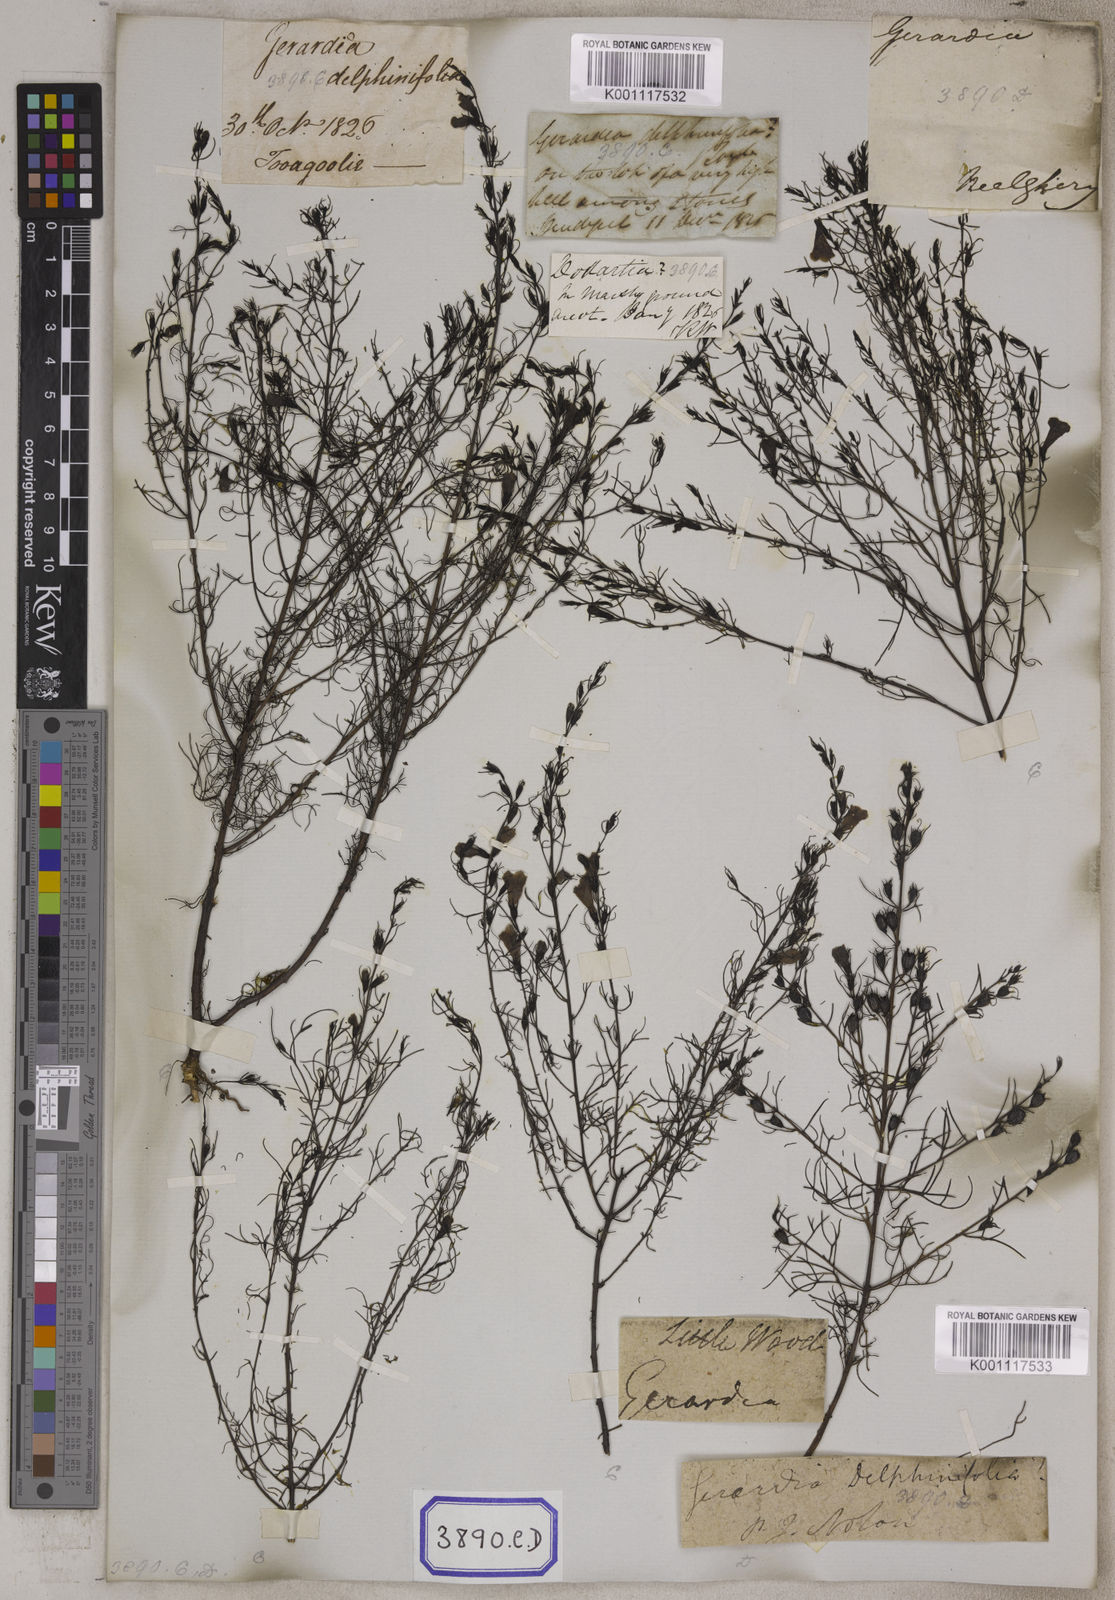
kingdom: Plantae
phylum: Tracheophyta
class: Magnoliopsida
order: Lamiales
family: Orobanchaceae
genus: Parasopubia
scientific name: Parasopubia delphiniifolia
